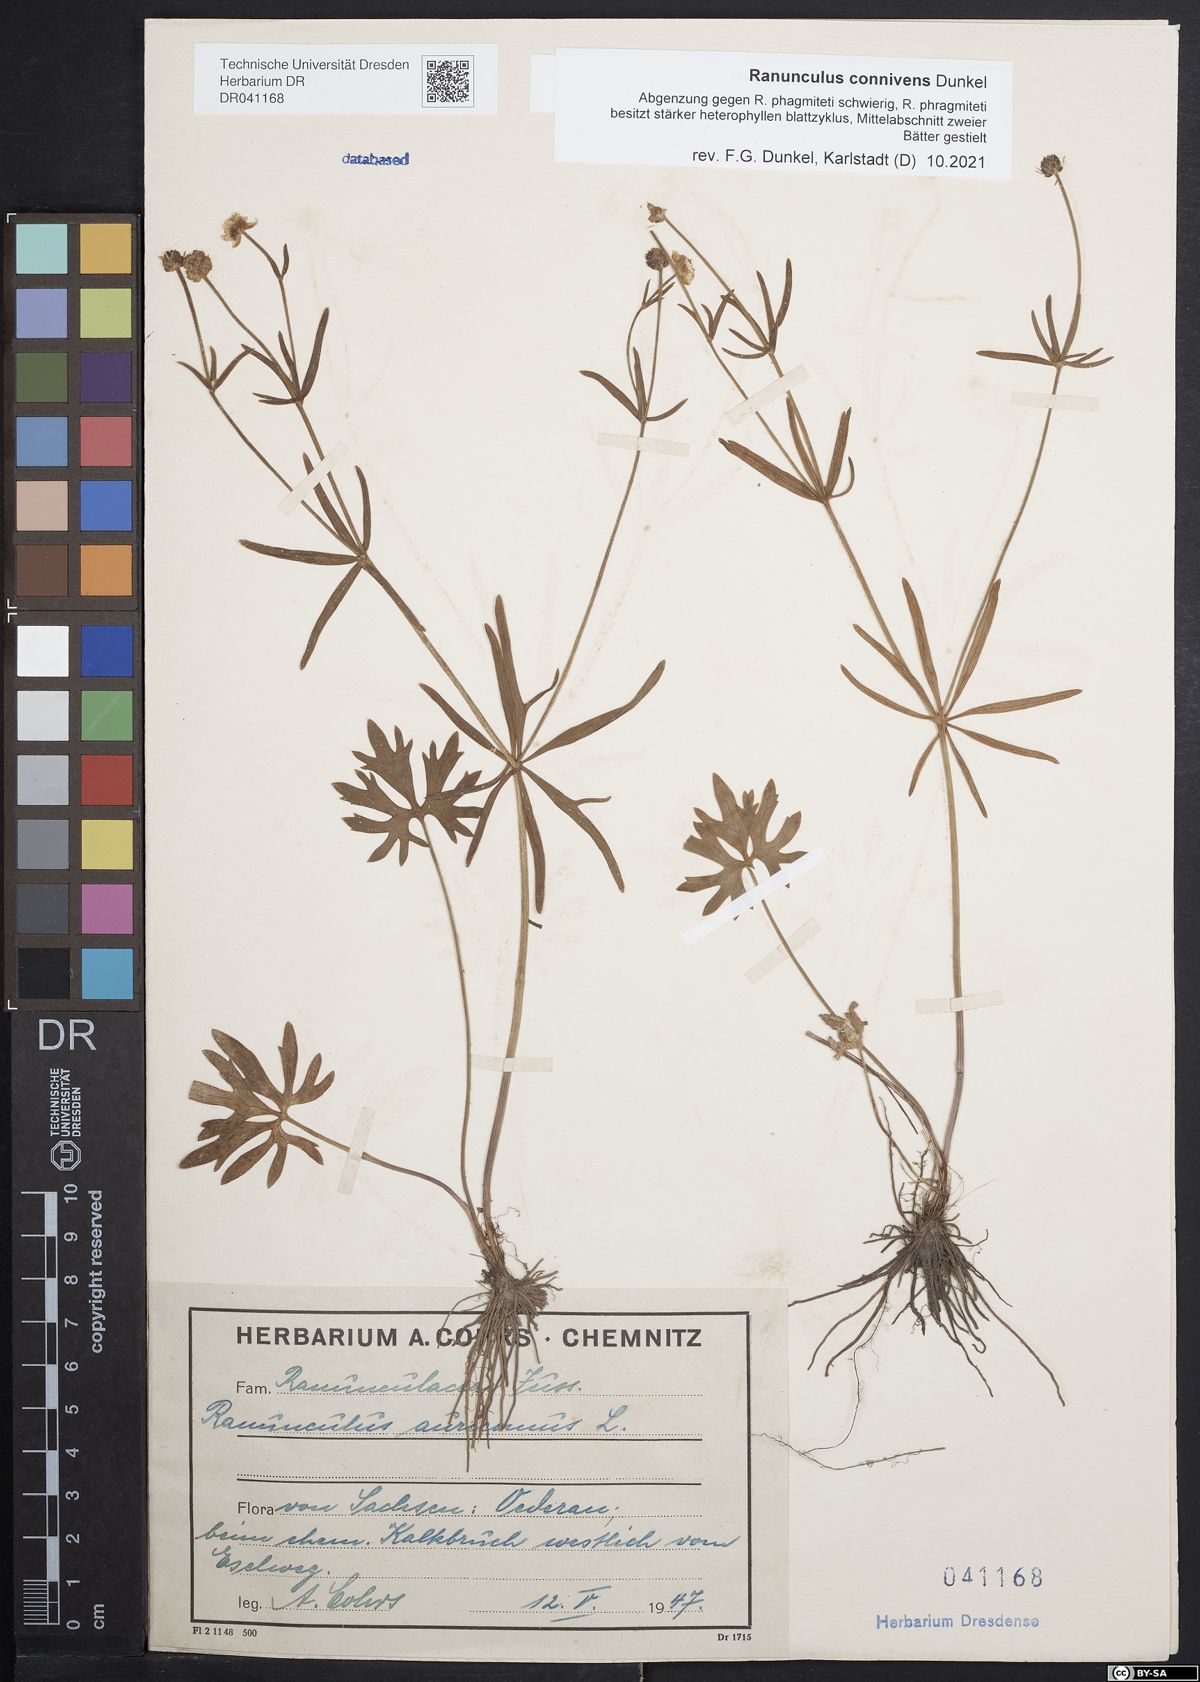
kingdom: Plantae
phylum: Tracheophyta
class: Magnoliopsida
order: Ranunculales
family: Ranunculaceae
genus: Ranunculus
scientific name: Ranunculus connivens
